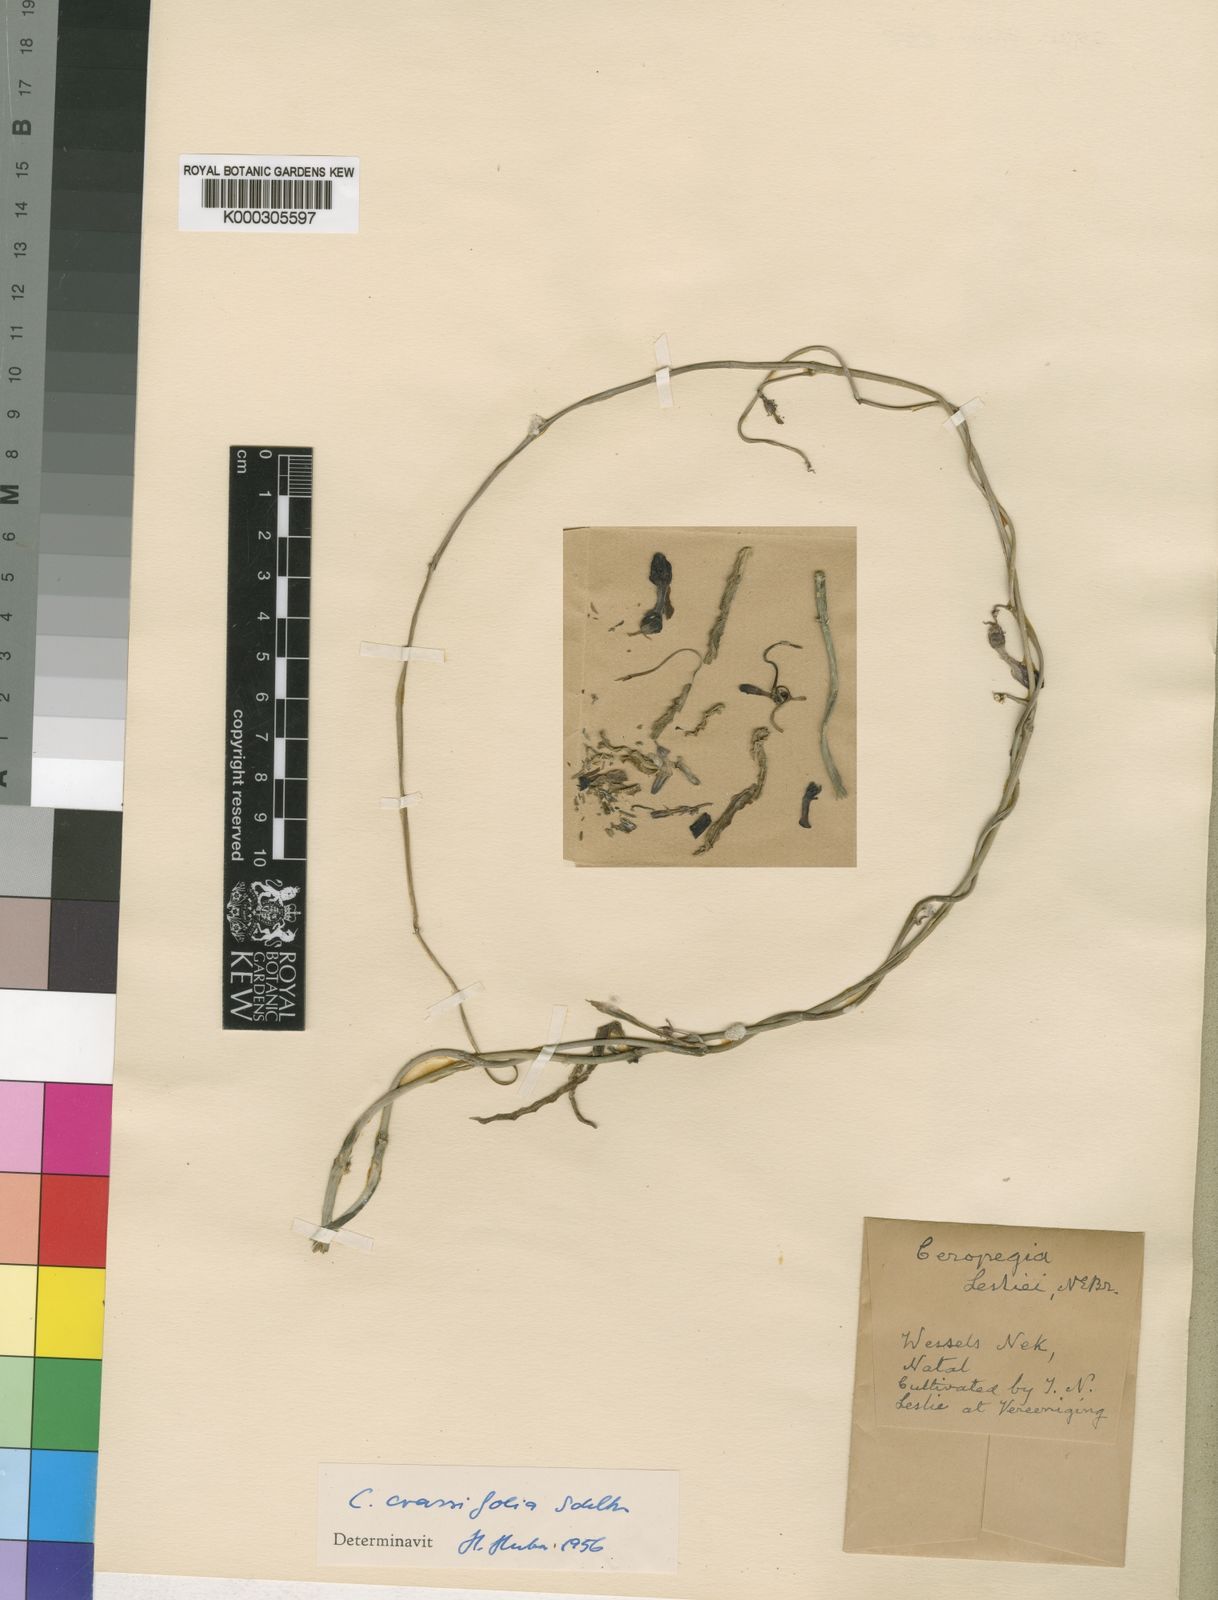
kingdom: Plantae
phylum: Tracheophyta
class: Magnoliopsida
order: Gentianales
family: Apocynaceae
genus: Ceropegia
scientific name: Ceropegia brachyceras
